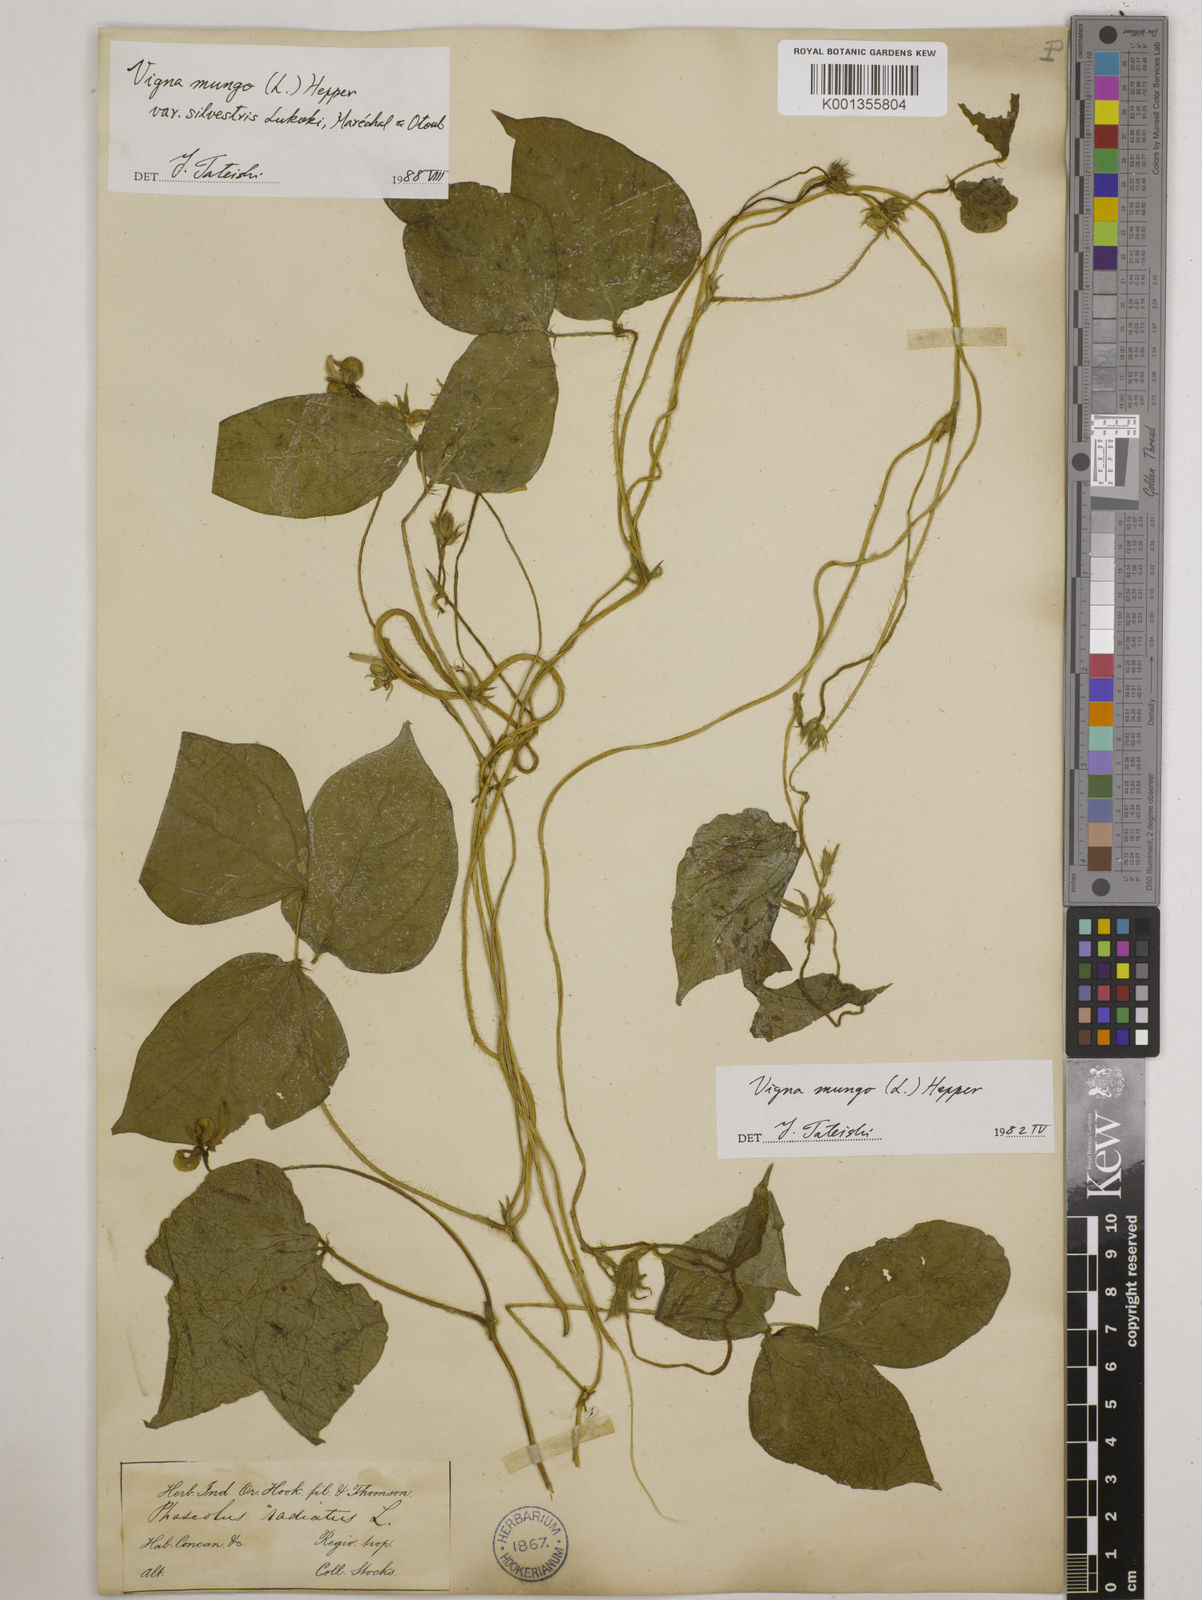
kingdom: Plantae
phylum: Tracheophyta
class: Magnoliopsida
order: Fabales
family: Fabaceae
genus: Vigna
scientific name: Vigna mungo
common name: Black gram
